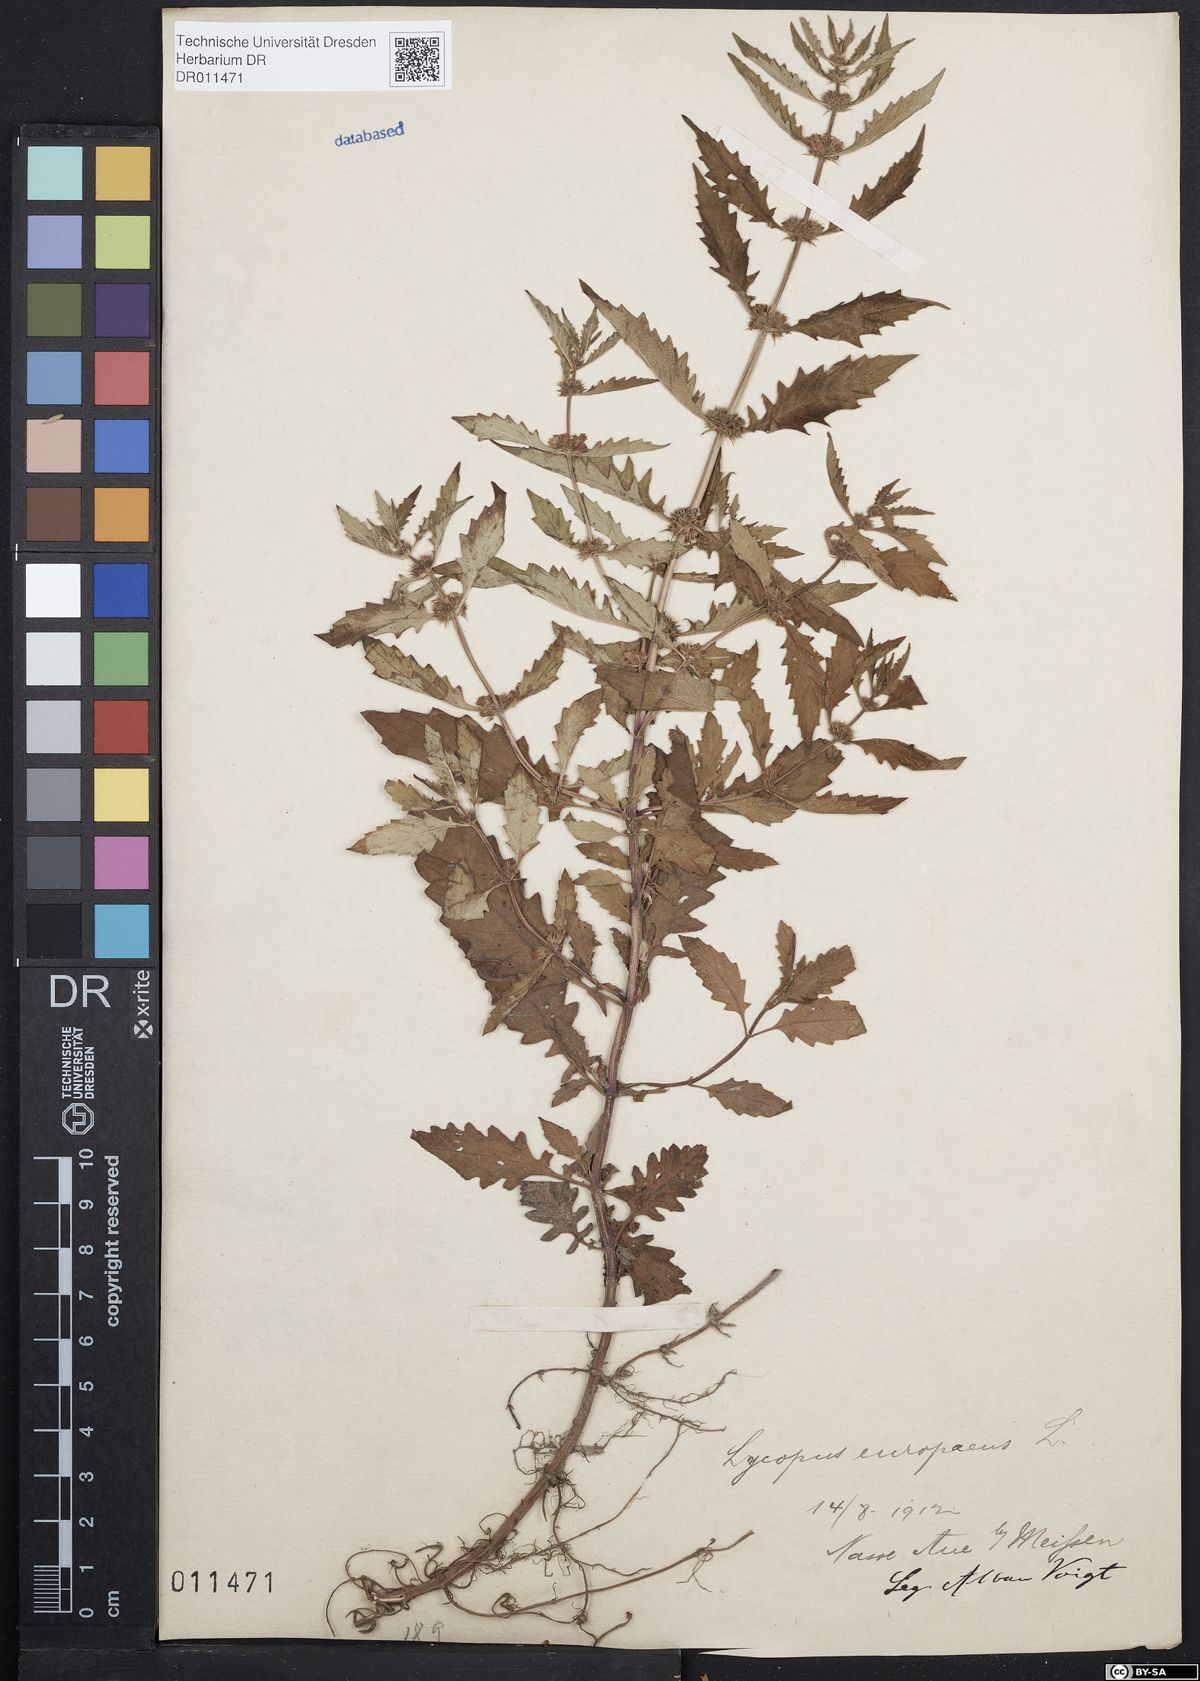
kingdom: Plantae
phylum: Tracheophyta
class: Magnoliopsida
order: Lamiales
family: Lamiaceae
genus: Lycopus
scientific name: Lycopus europaeus
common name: European bugleweed
